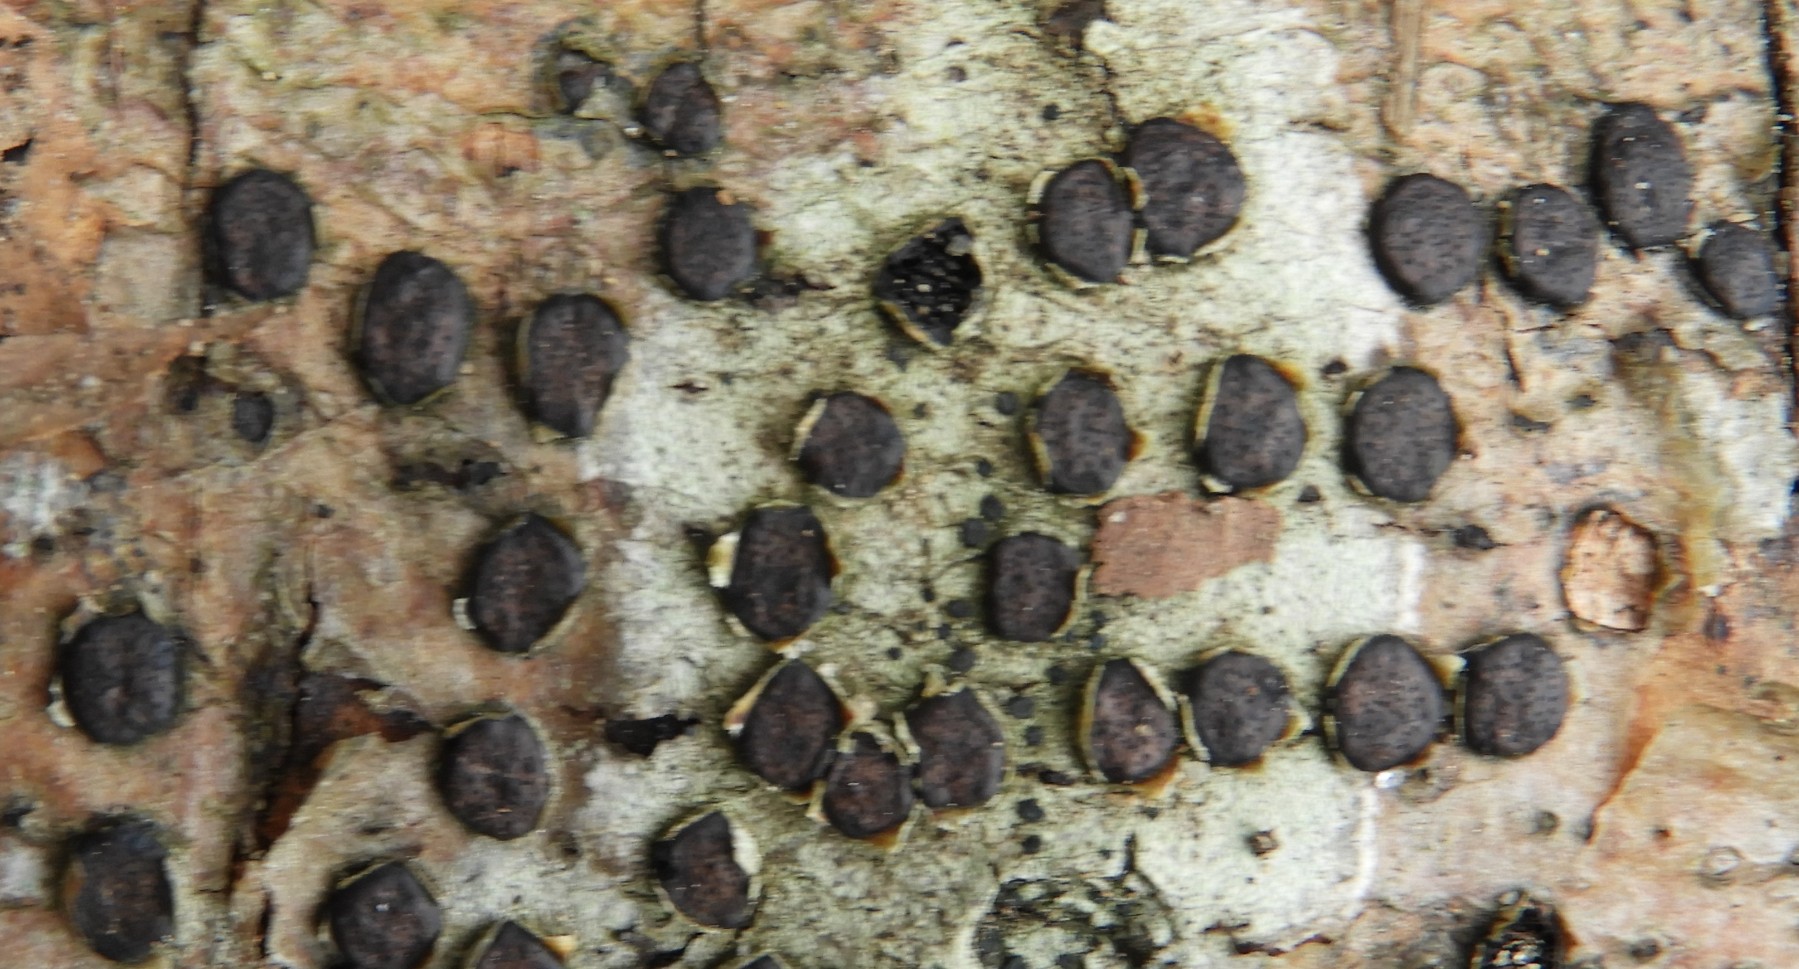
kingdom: Fungi
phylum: Ascomycota
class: Sordariomycetes
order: Xylariales
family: Diatrypaceae
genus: Diatrype
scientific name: Diatrype disciformis
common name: kant-kulskorpe
